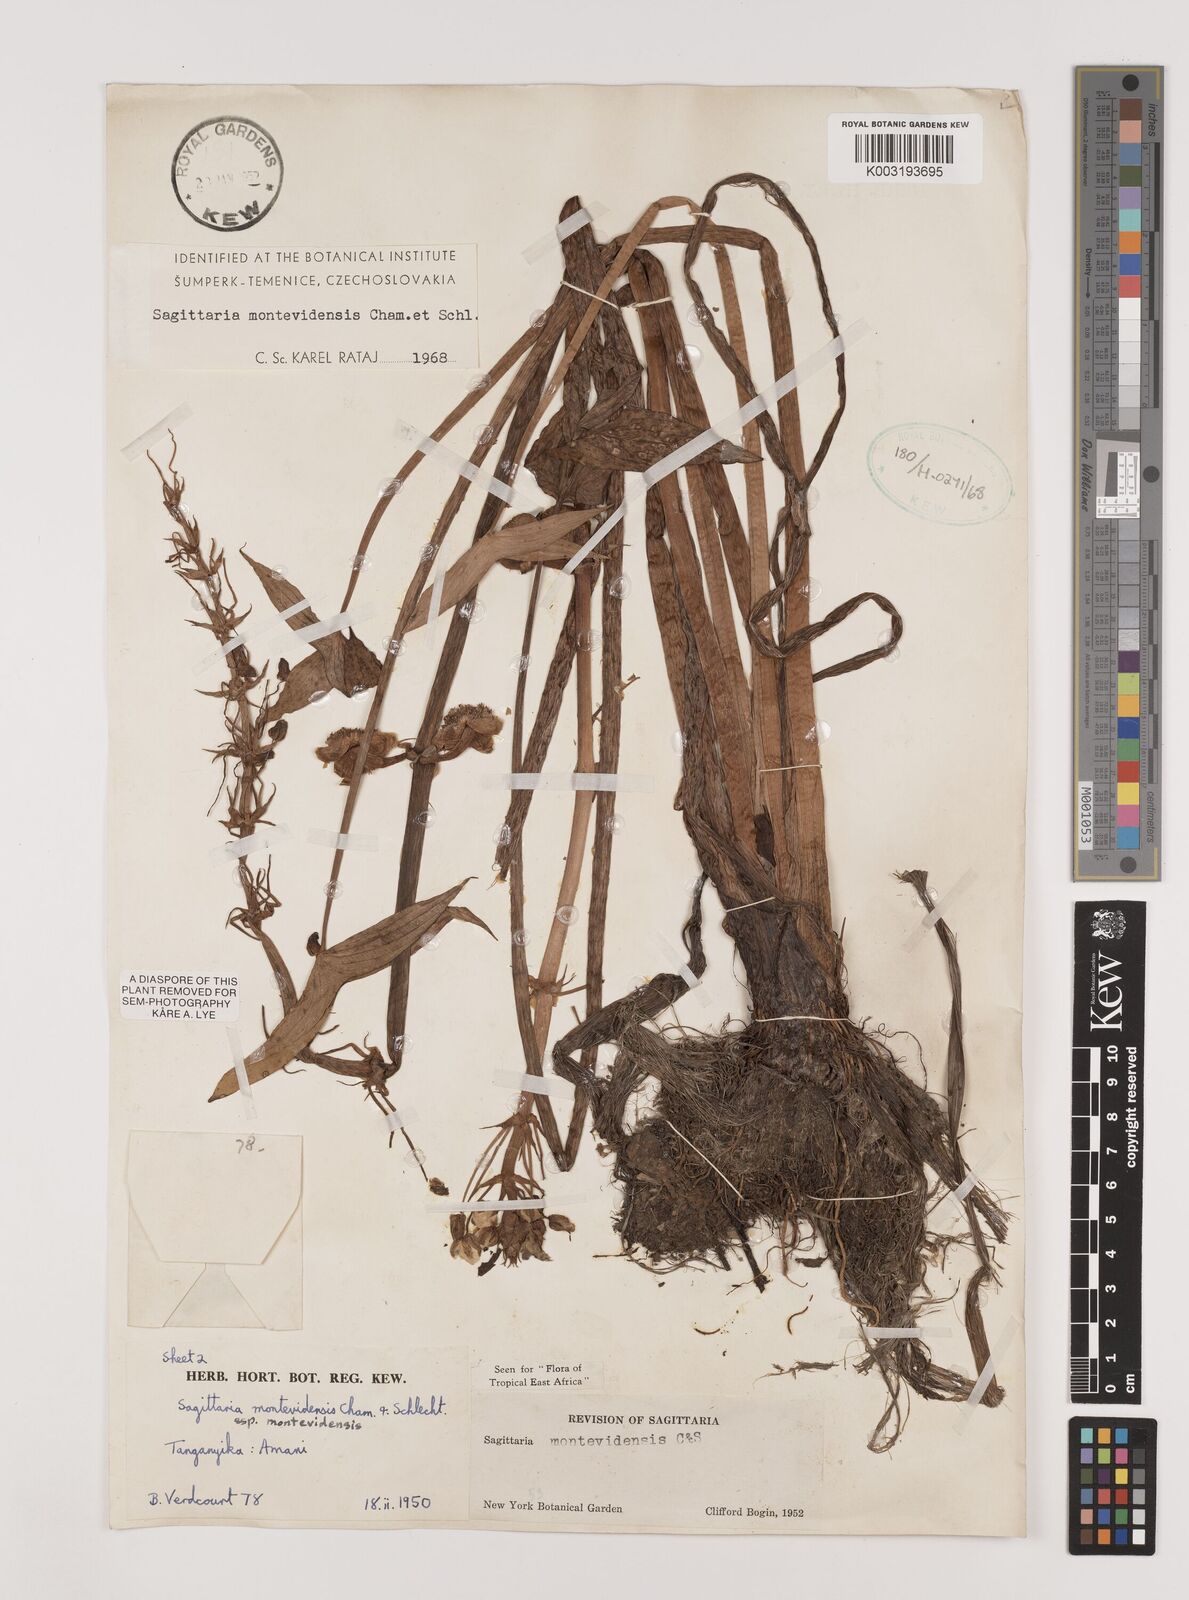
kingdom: Plantae
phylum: Tracheophyta
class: Liliopsida
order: Alismatales
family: Alismataceae
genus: Sagittaria
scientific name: Sagittaria montevidensis
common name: Giant arrowhead
